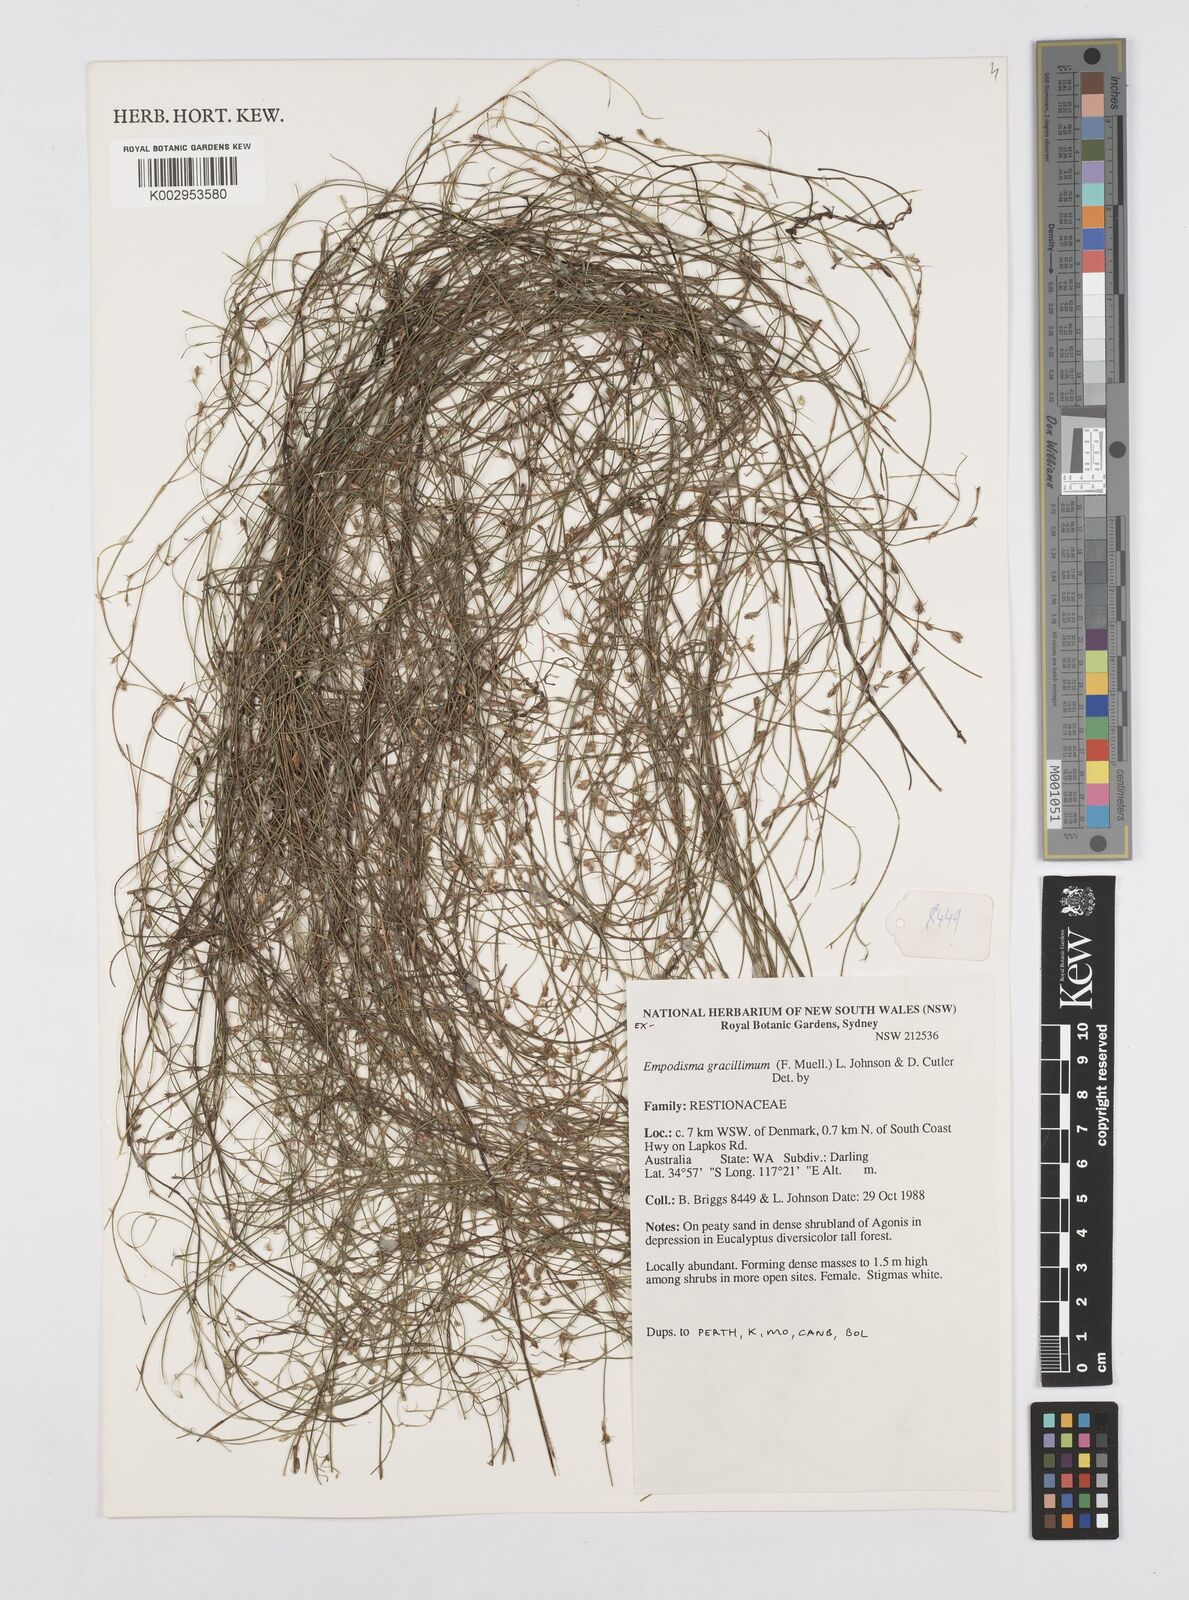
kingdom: Plantae
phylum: Tracheophyta
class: Liliopsida
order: Poales
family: Restionaceae
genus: Empodisma
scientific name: Empodisma gracillimum
